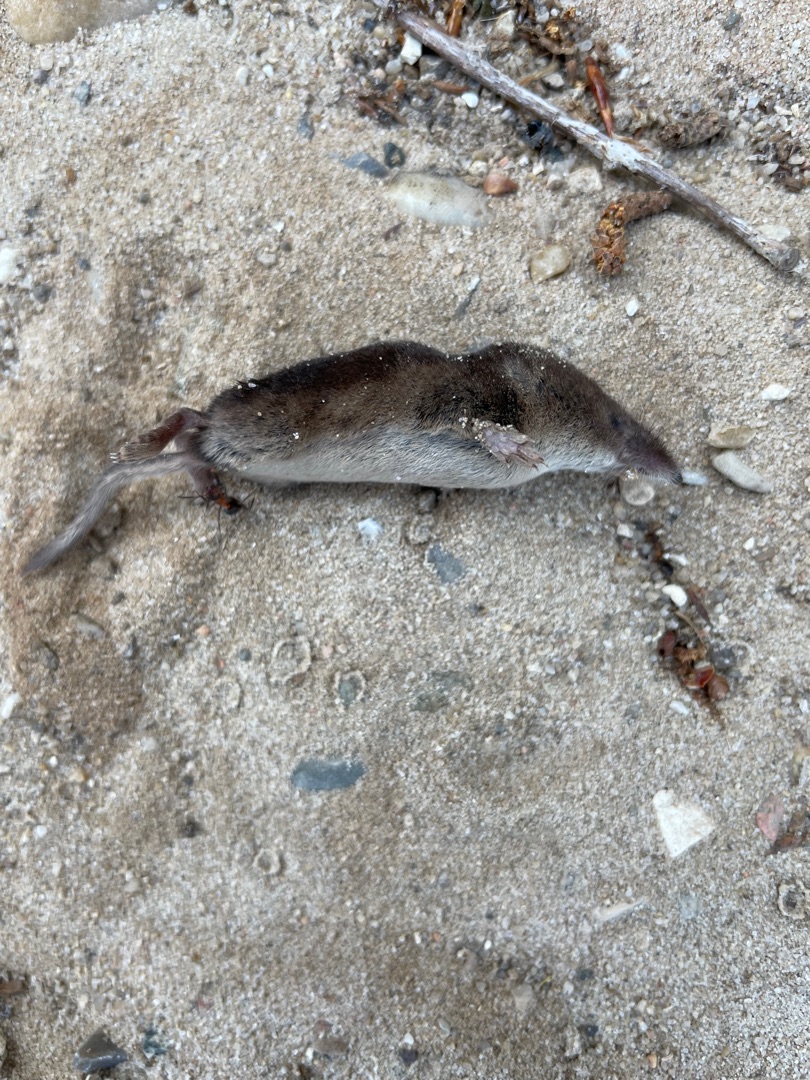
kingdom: Animalia
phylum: Chordata
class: Mammalia
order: Soricomorpha
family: Soricidae
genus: Sorex
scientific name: Sorex araneus
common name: Almindelig spidsmus
